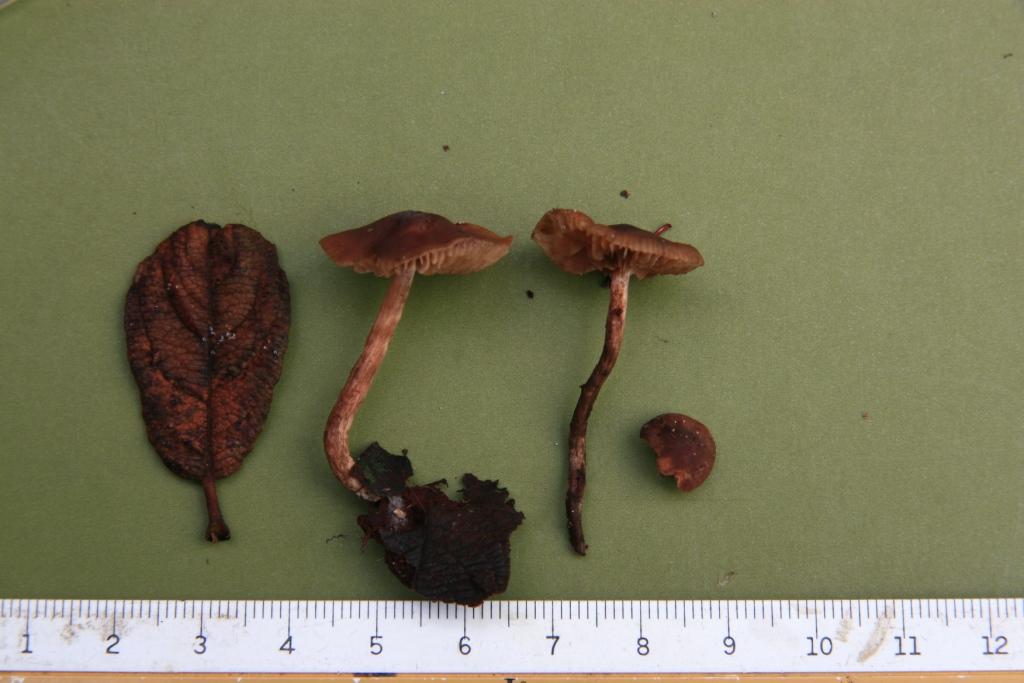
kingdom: Fungi
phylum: Basidiomycota
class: Agaricomycetes
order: Agaricales
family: Hymenogastraceae
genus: Naucoria
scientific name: Naucoria salicis
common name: pile-knaphat
